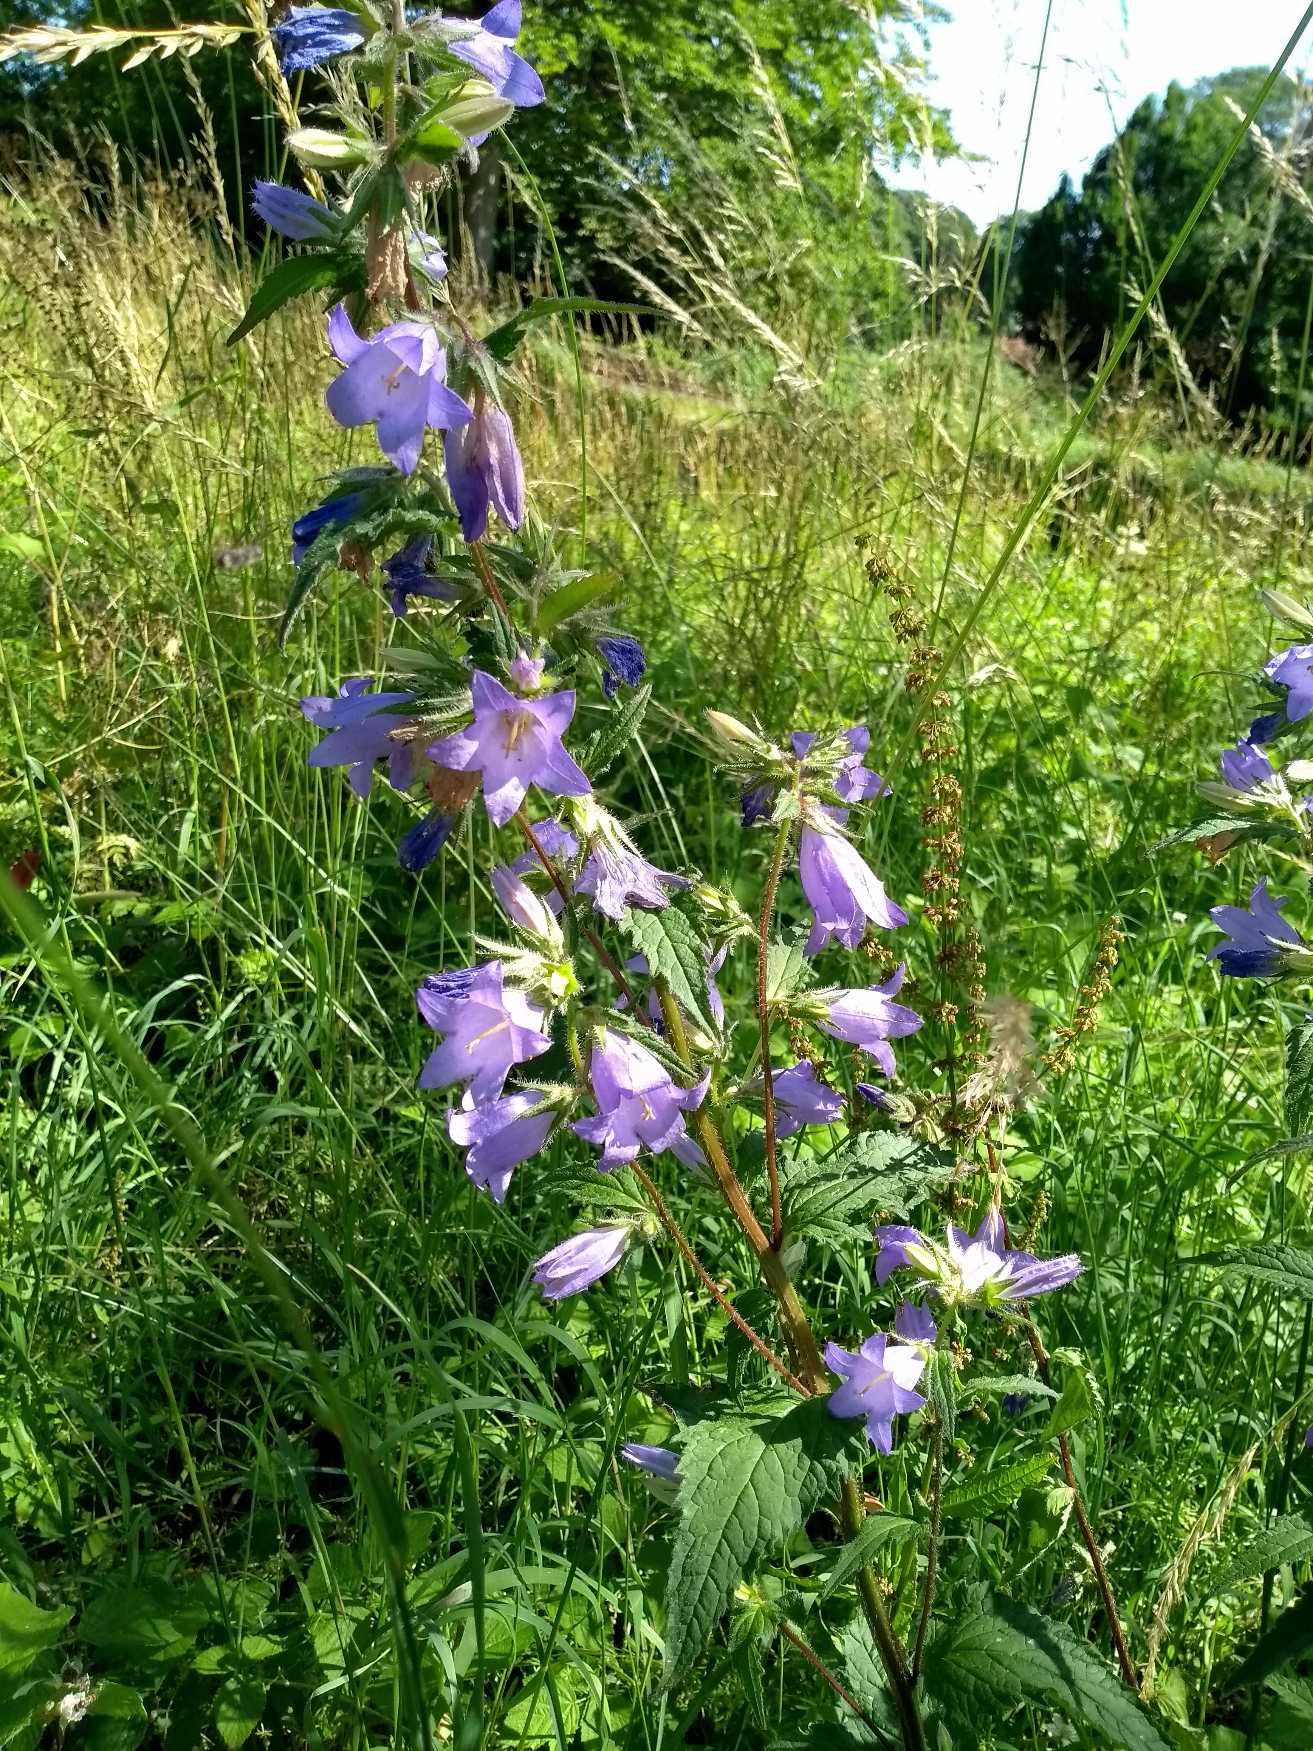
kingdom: Plantae
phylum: Tracheophyta
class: Magnoliopsida
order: Asterales
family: Campanulaceae
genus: Campanula
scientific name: Campanula trachelium
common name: Nælde-klokke
